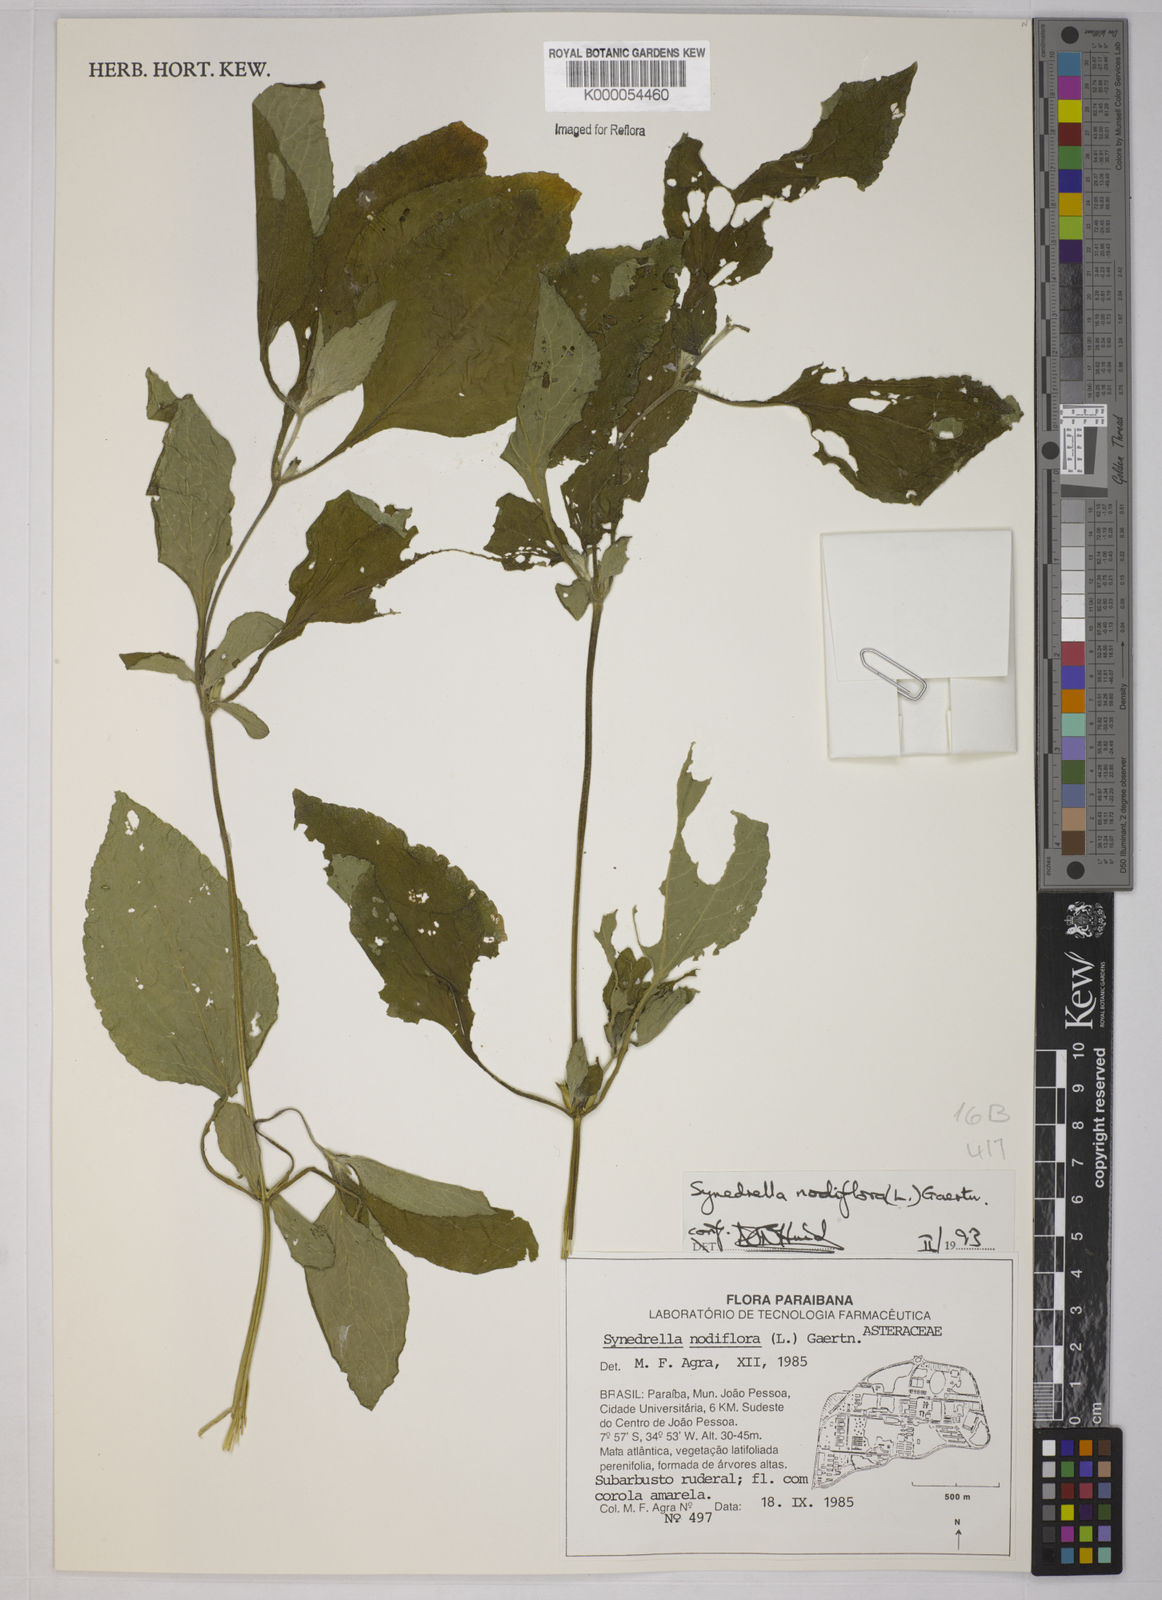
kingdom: Plantae
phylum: Tracheophyta
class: Magnoliopsida
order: Asterales
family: Asteraceae
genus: Synedrella
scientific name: Synedrella nodiflora
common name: Nodeweed
